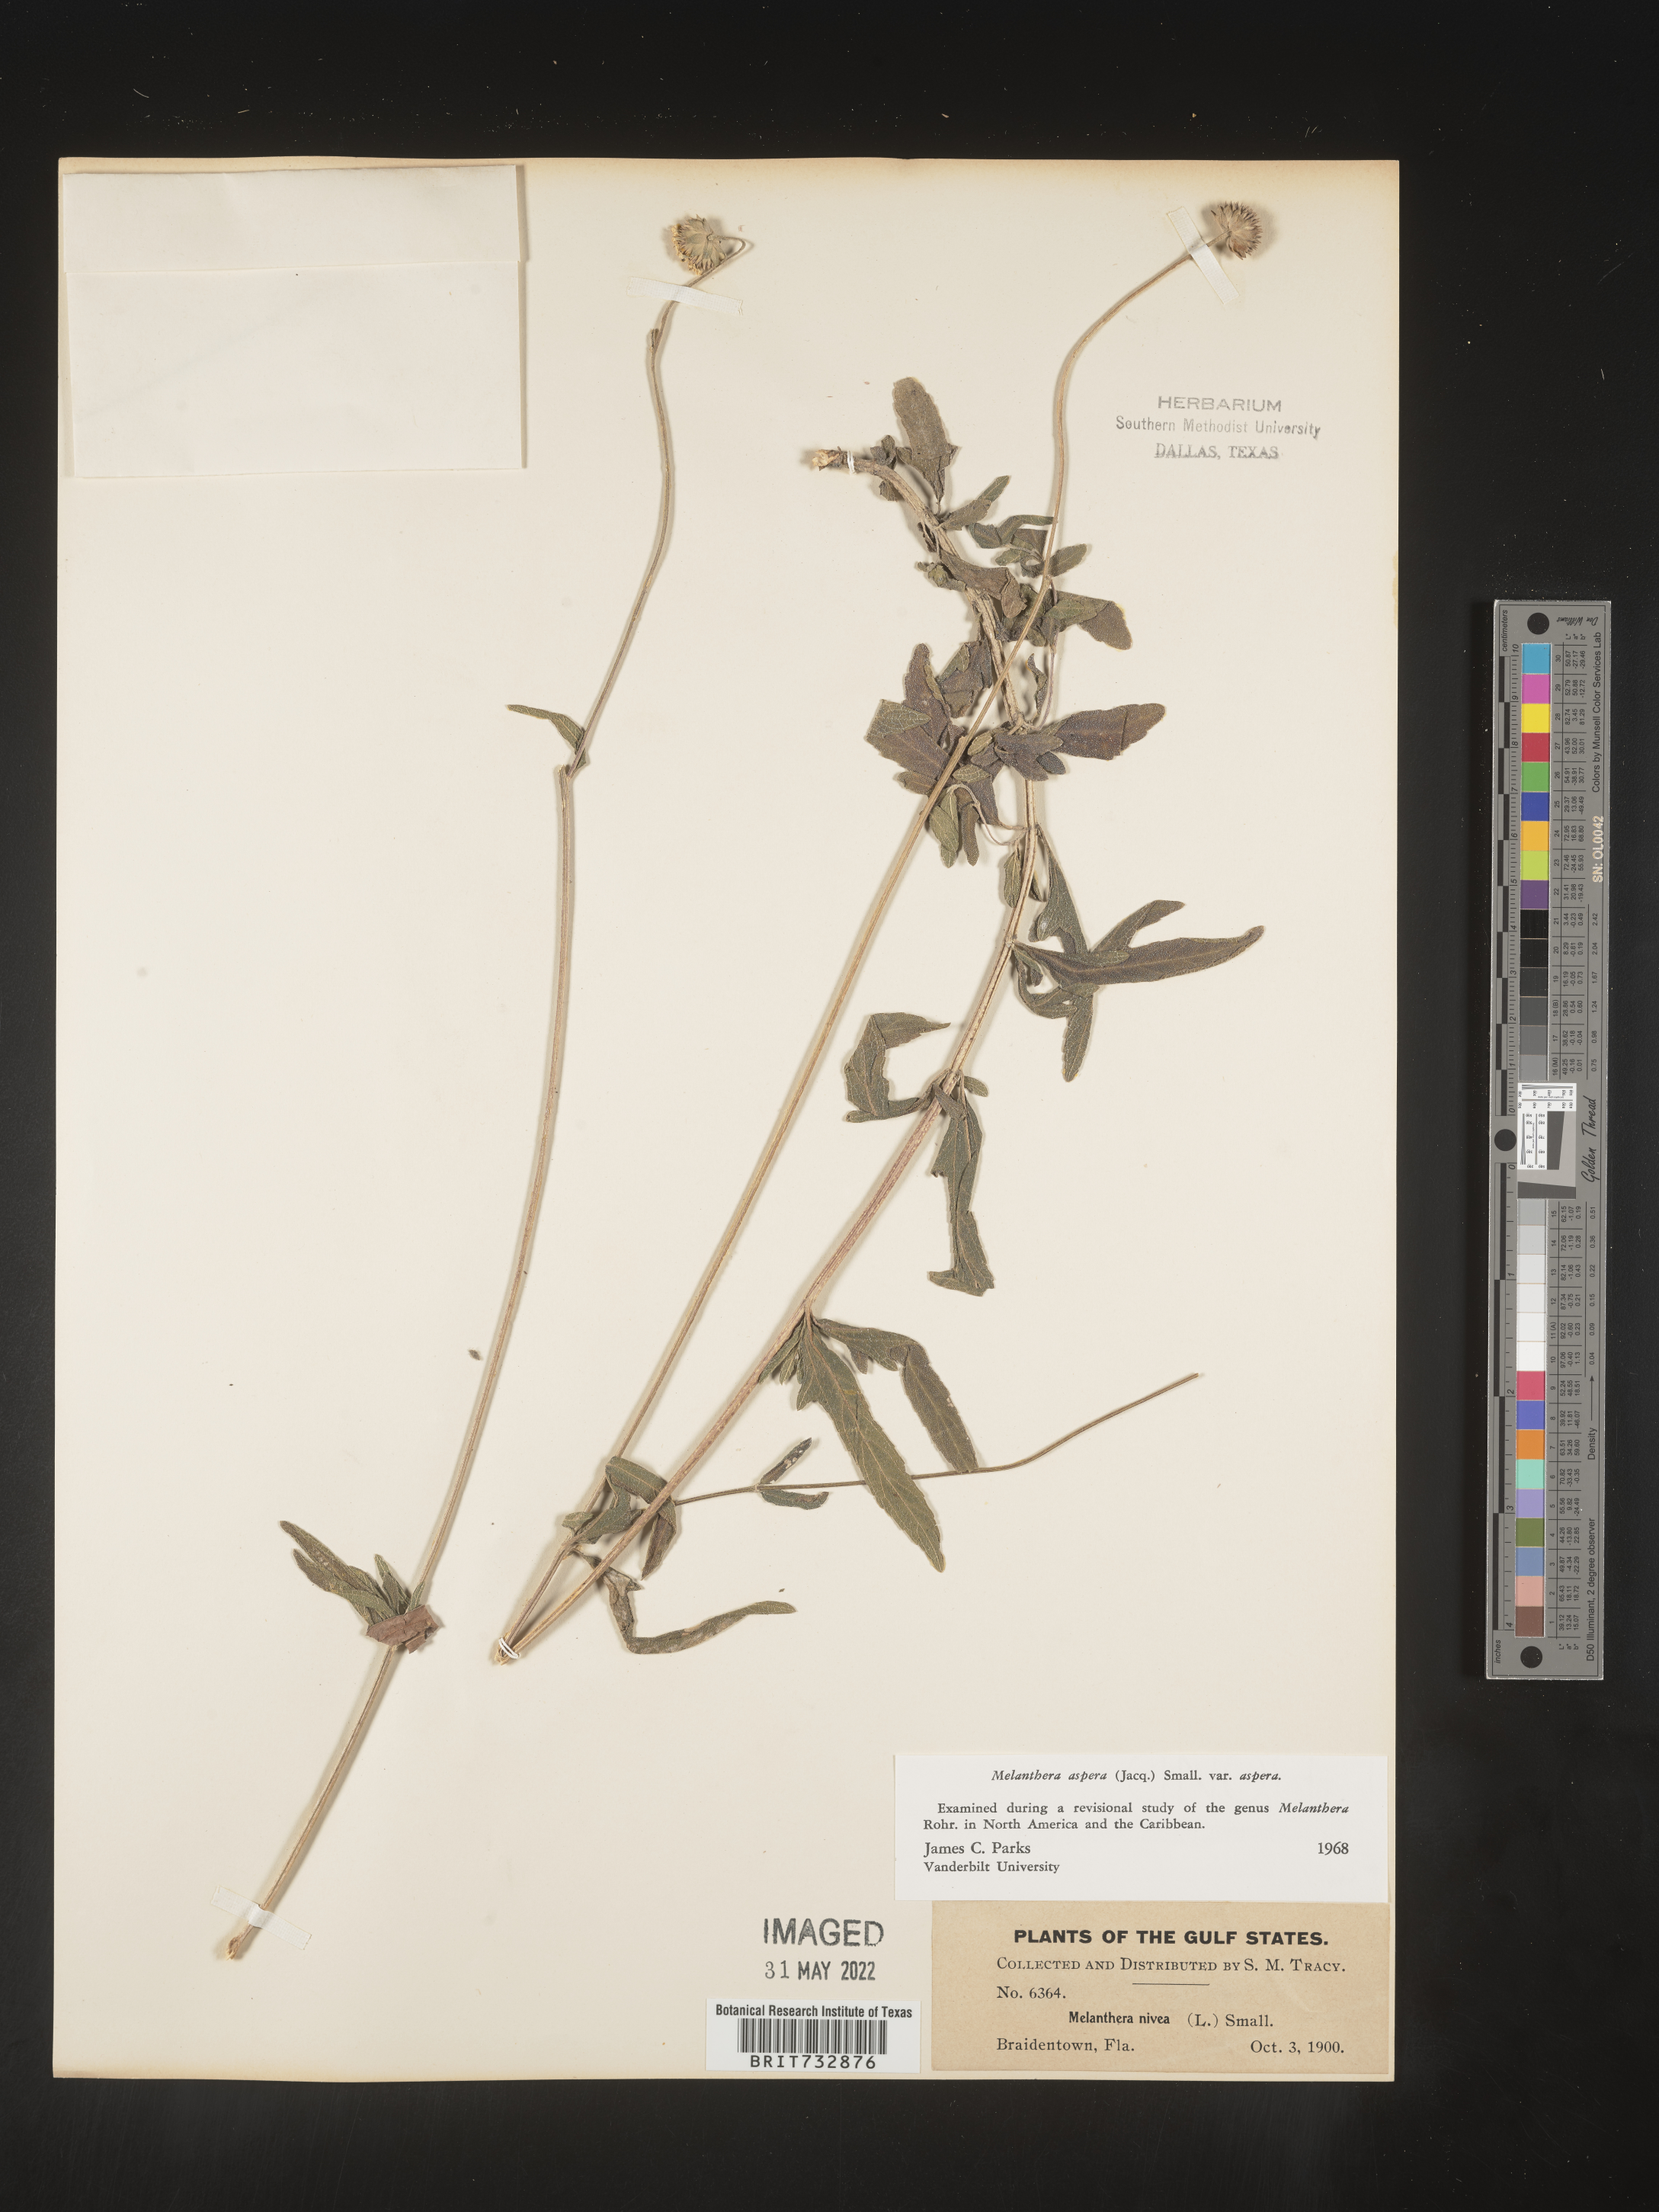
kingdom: Plantae
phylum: Tracheophyta
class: Magnoliopsida
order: Asterales
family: Asteraceae
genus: Melanthera
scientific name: Melanthera nivea
